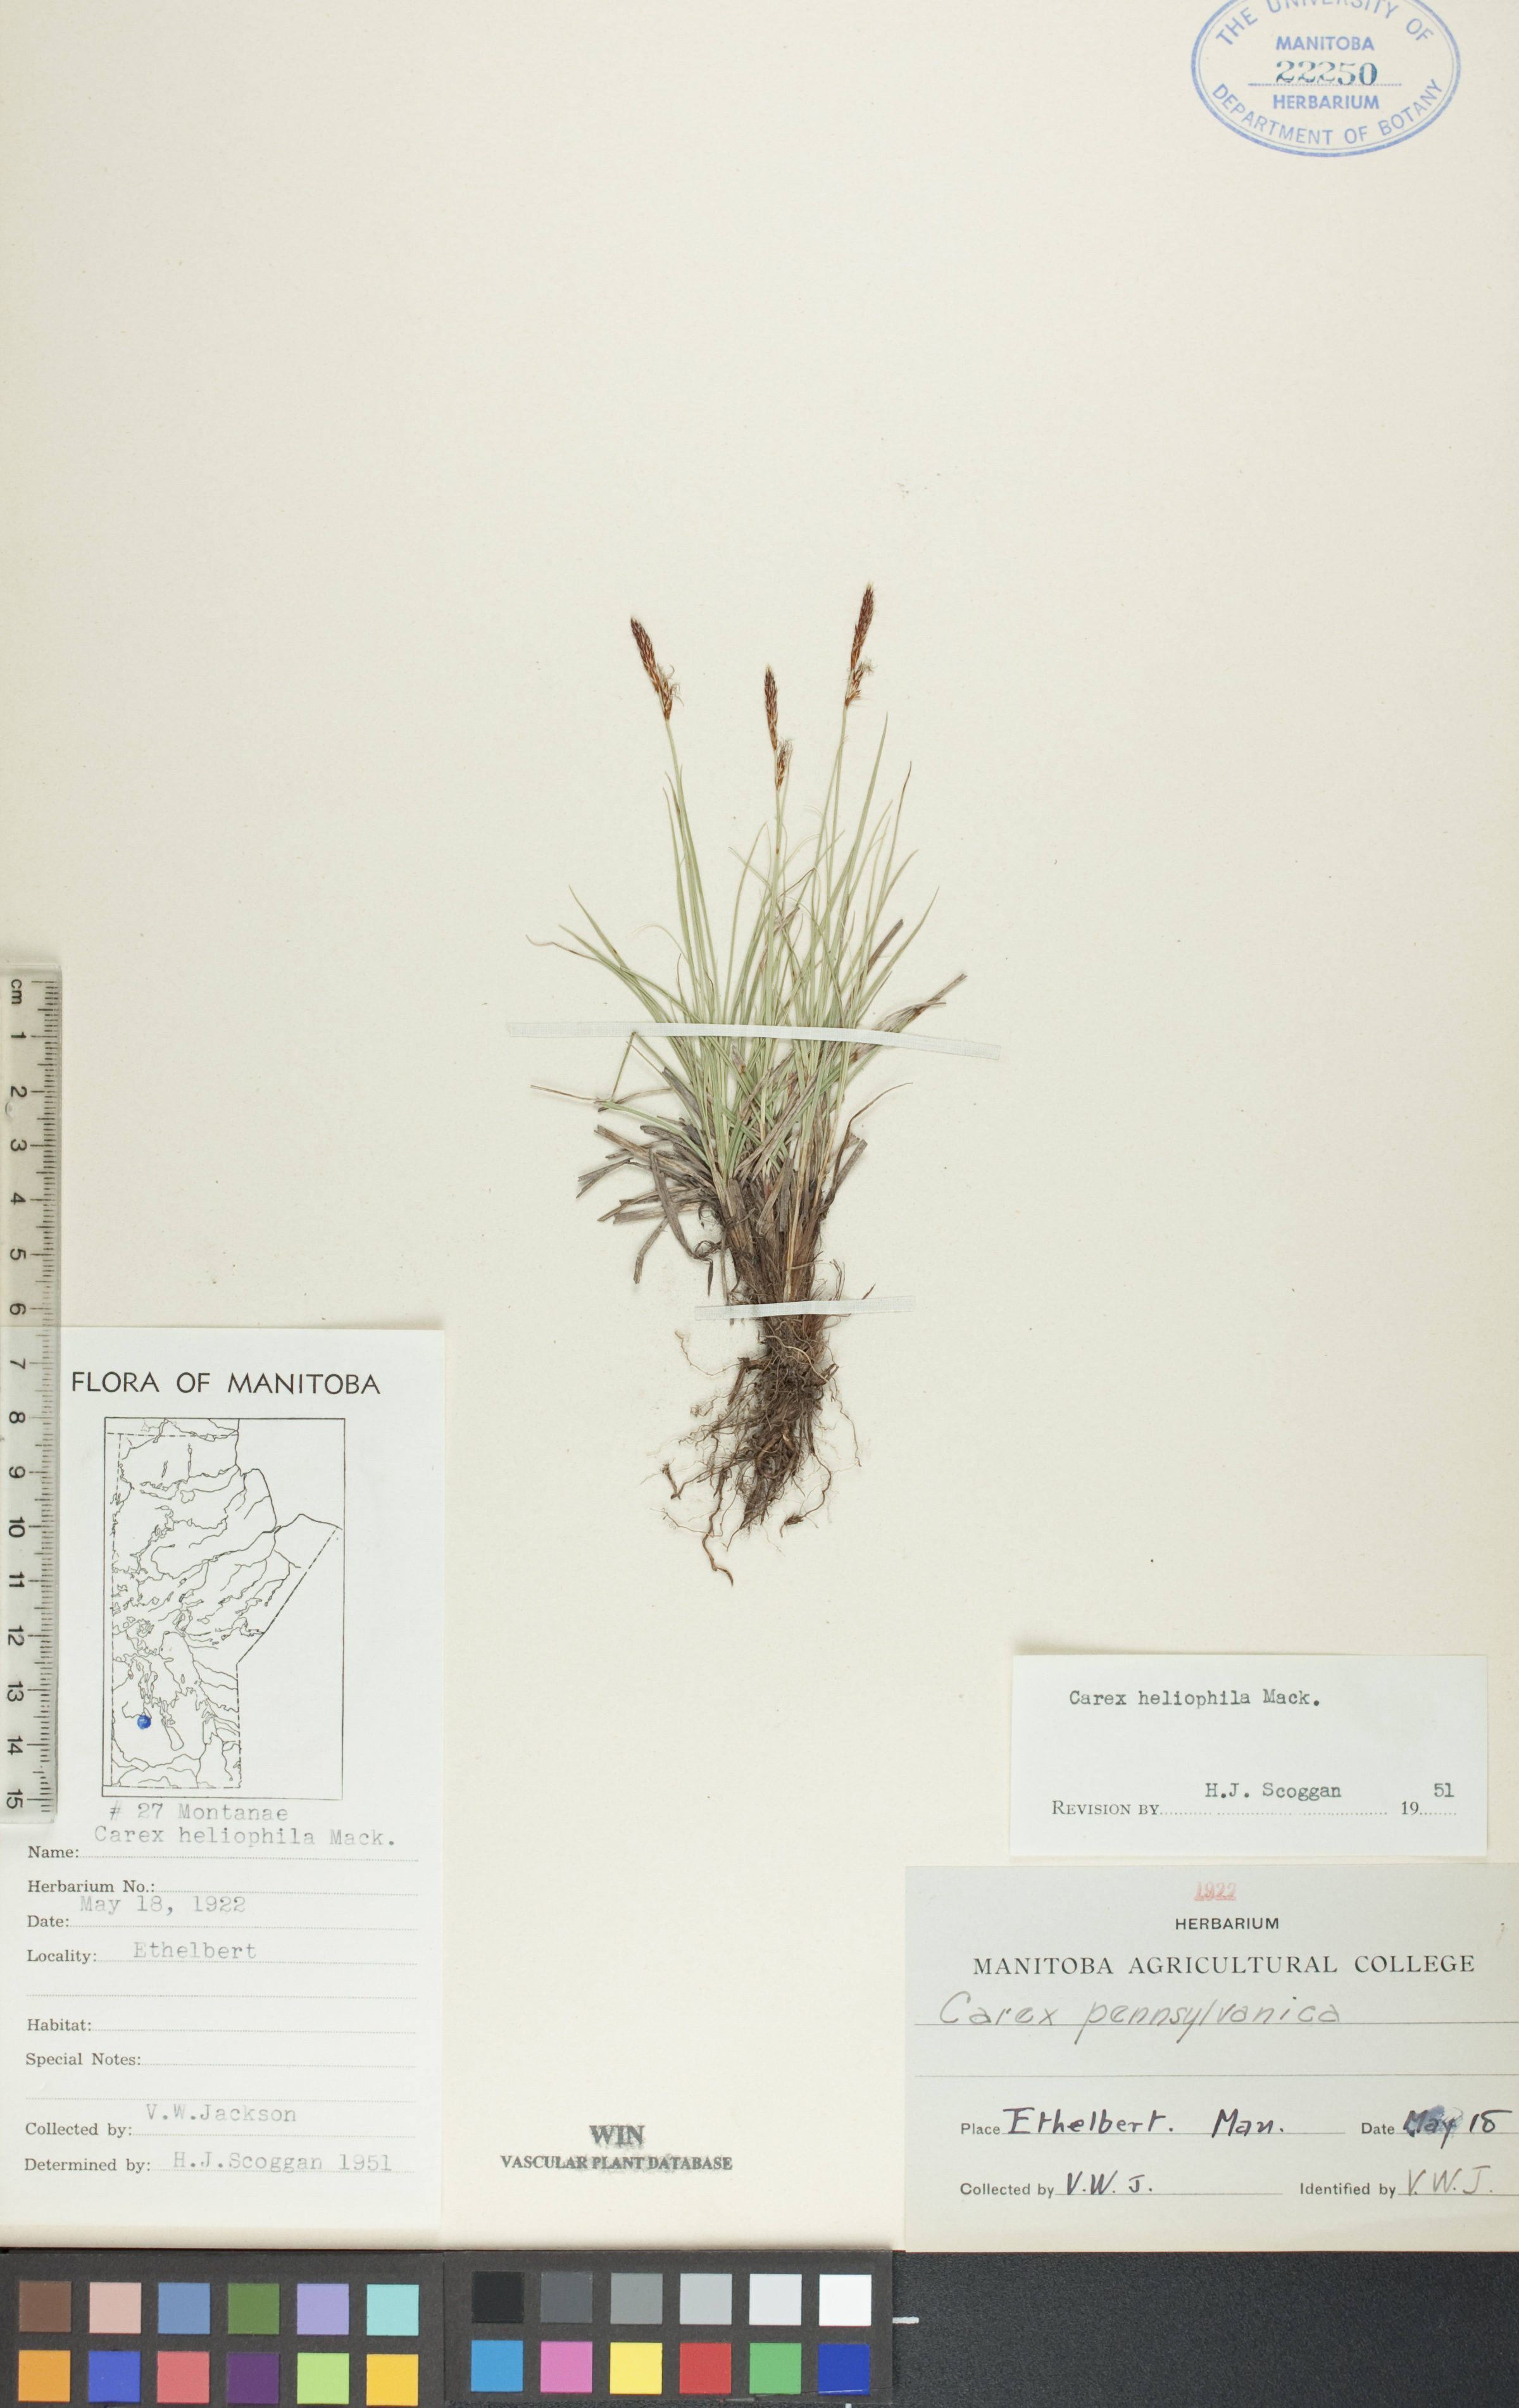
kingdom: Plantae
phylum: Tracheophyta
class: Liliopsida
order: Poales
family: Cyperaceae
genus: Carex
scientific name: Carex inops
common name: Long-stolon sedge
